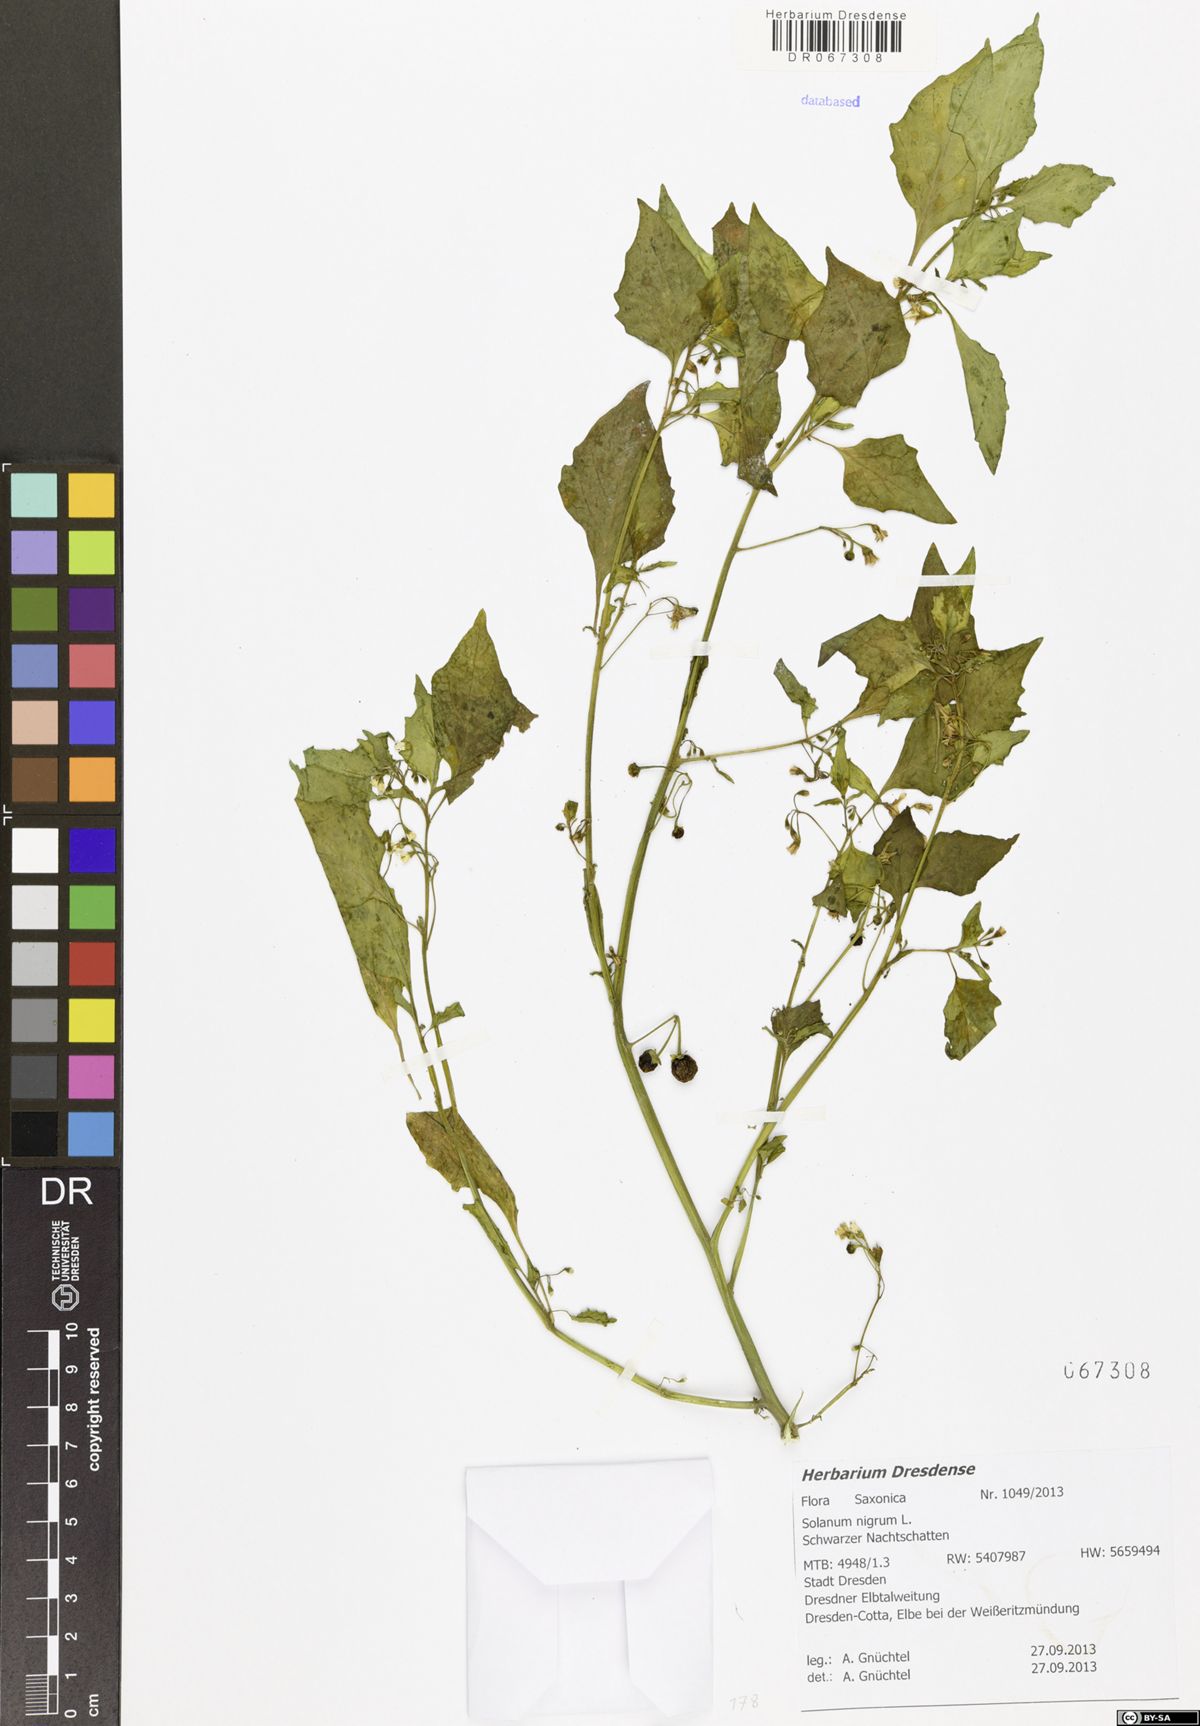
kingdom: Plantae
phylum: Tracheophyta
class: Magnoliopsida
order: Solanales
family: Solanaceae
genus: Solanum
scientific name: Solanum nigrum
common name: Black nightshade
